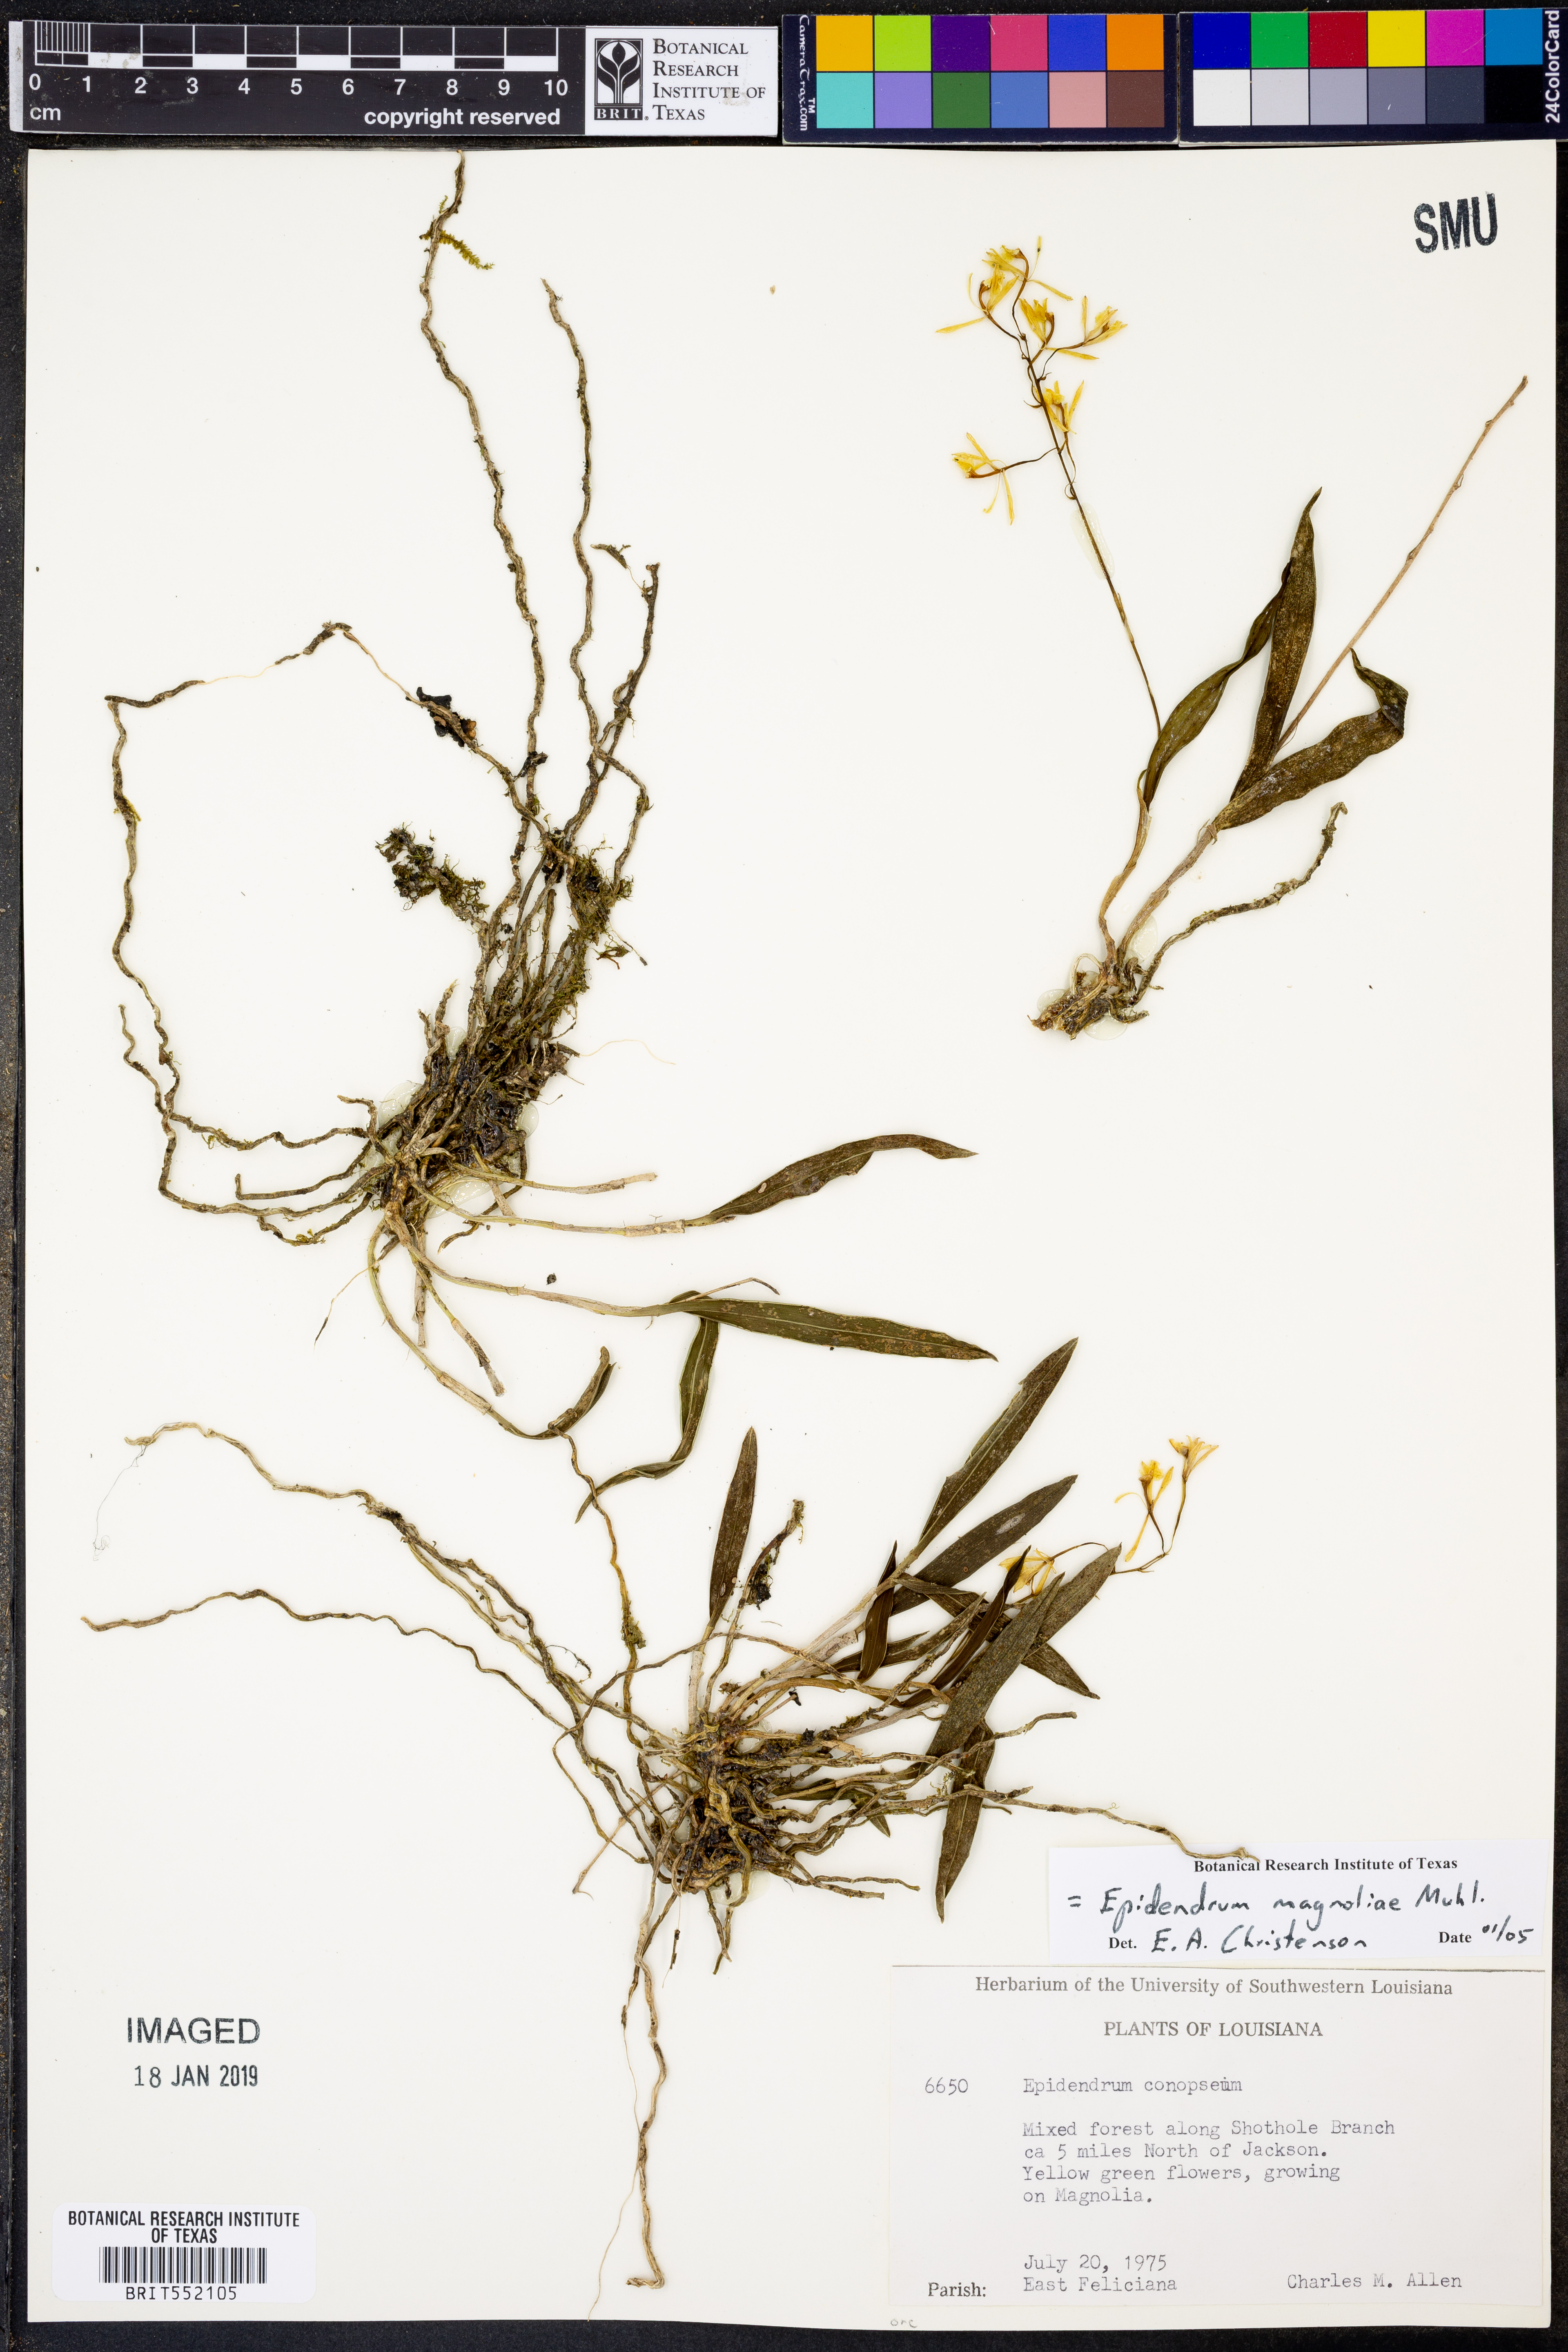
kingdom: Plantae
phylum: Tracheophyta
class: Liliopsida
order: Asparagales
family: Orchidaceae
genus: Epidendrum
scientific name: Epidendrum magnoliae
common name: Green fly orchid
